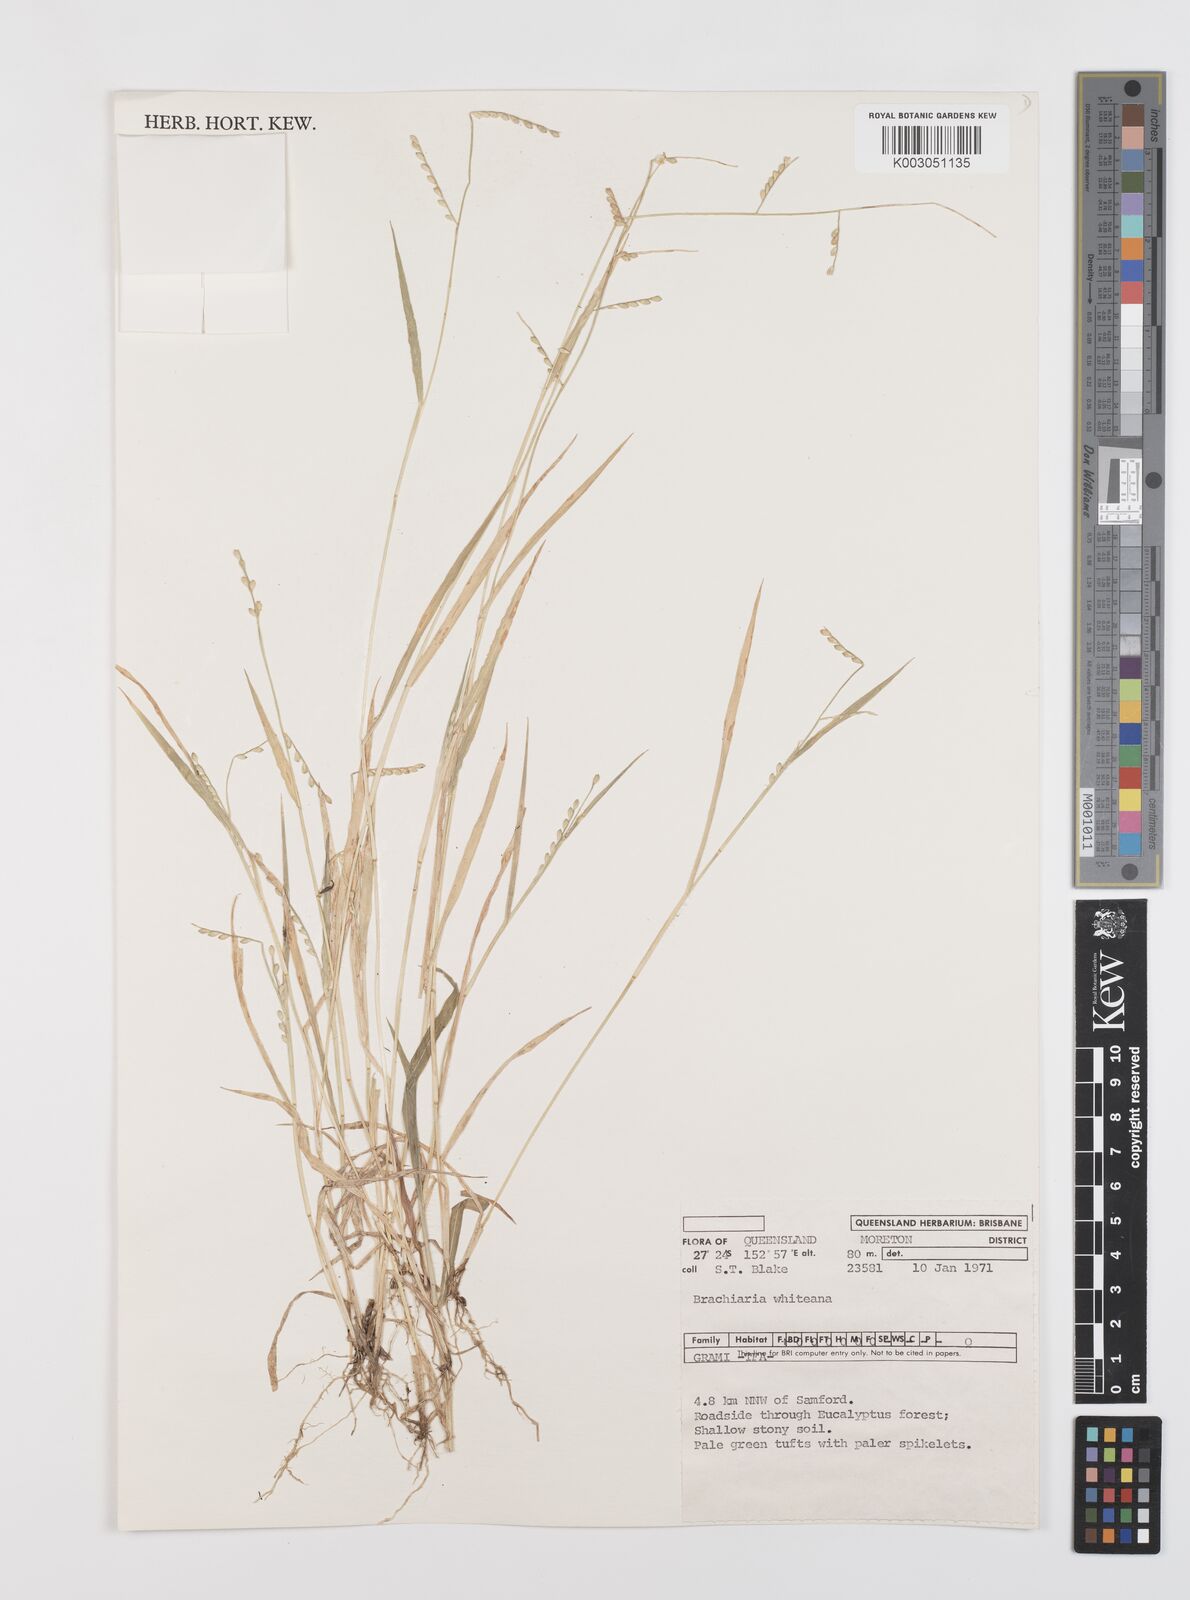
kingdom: Plantae
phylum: Tracheophyta
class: Liliopsida
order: Poales
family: Poaceae
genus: Urochloa
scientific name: Urochloa whiteana
